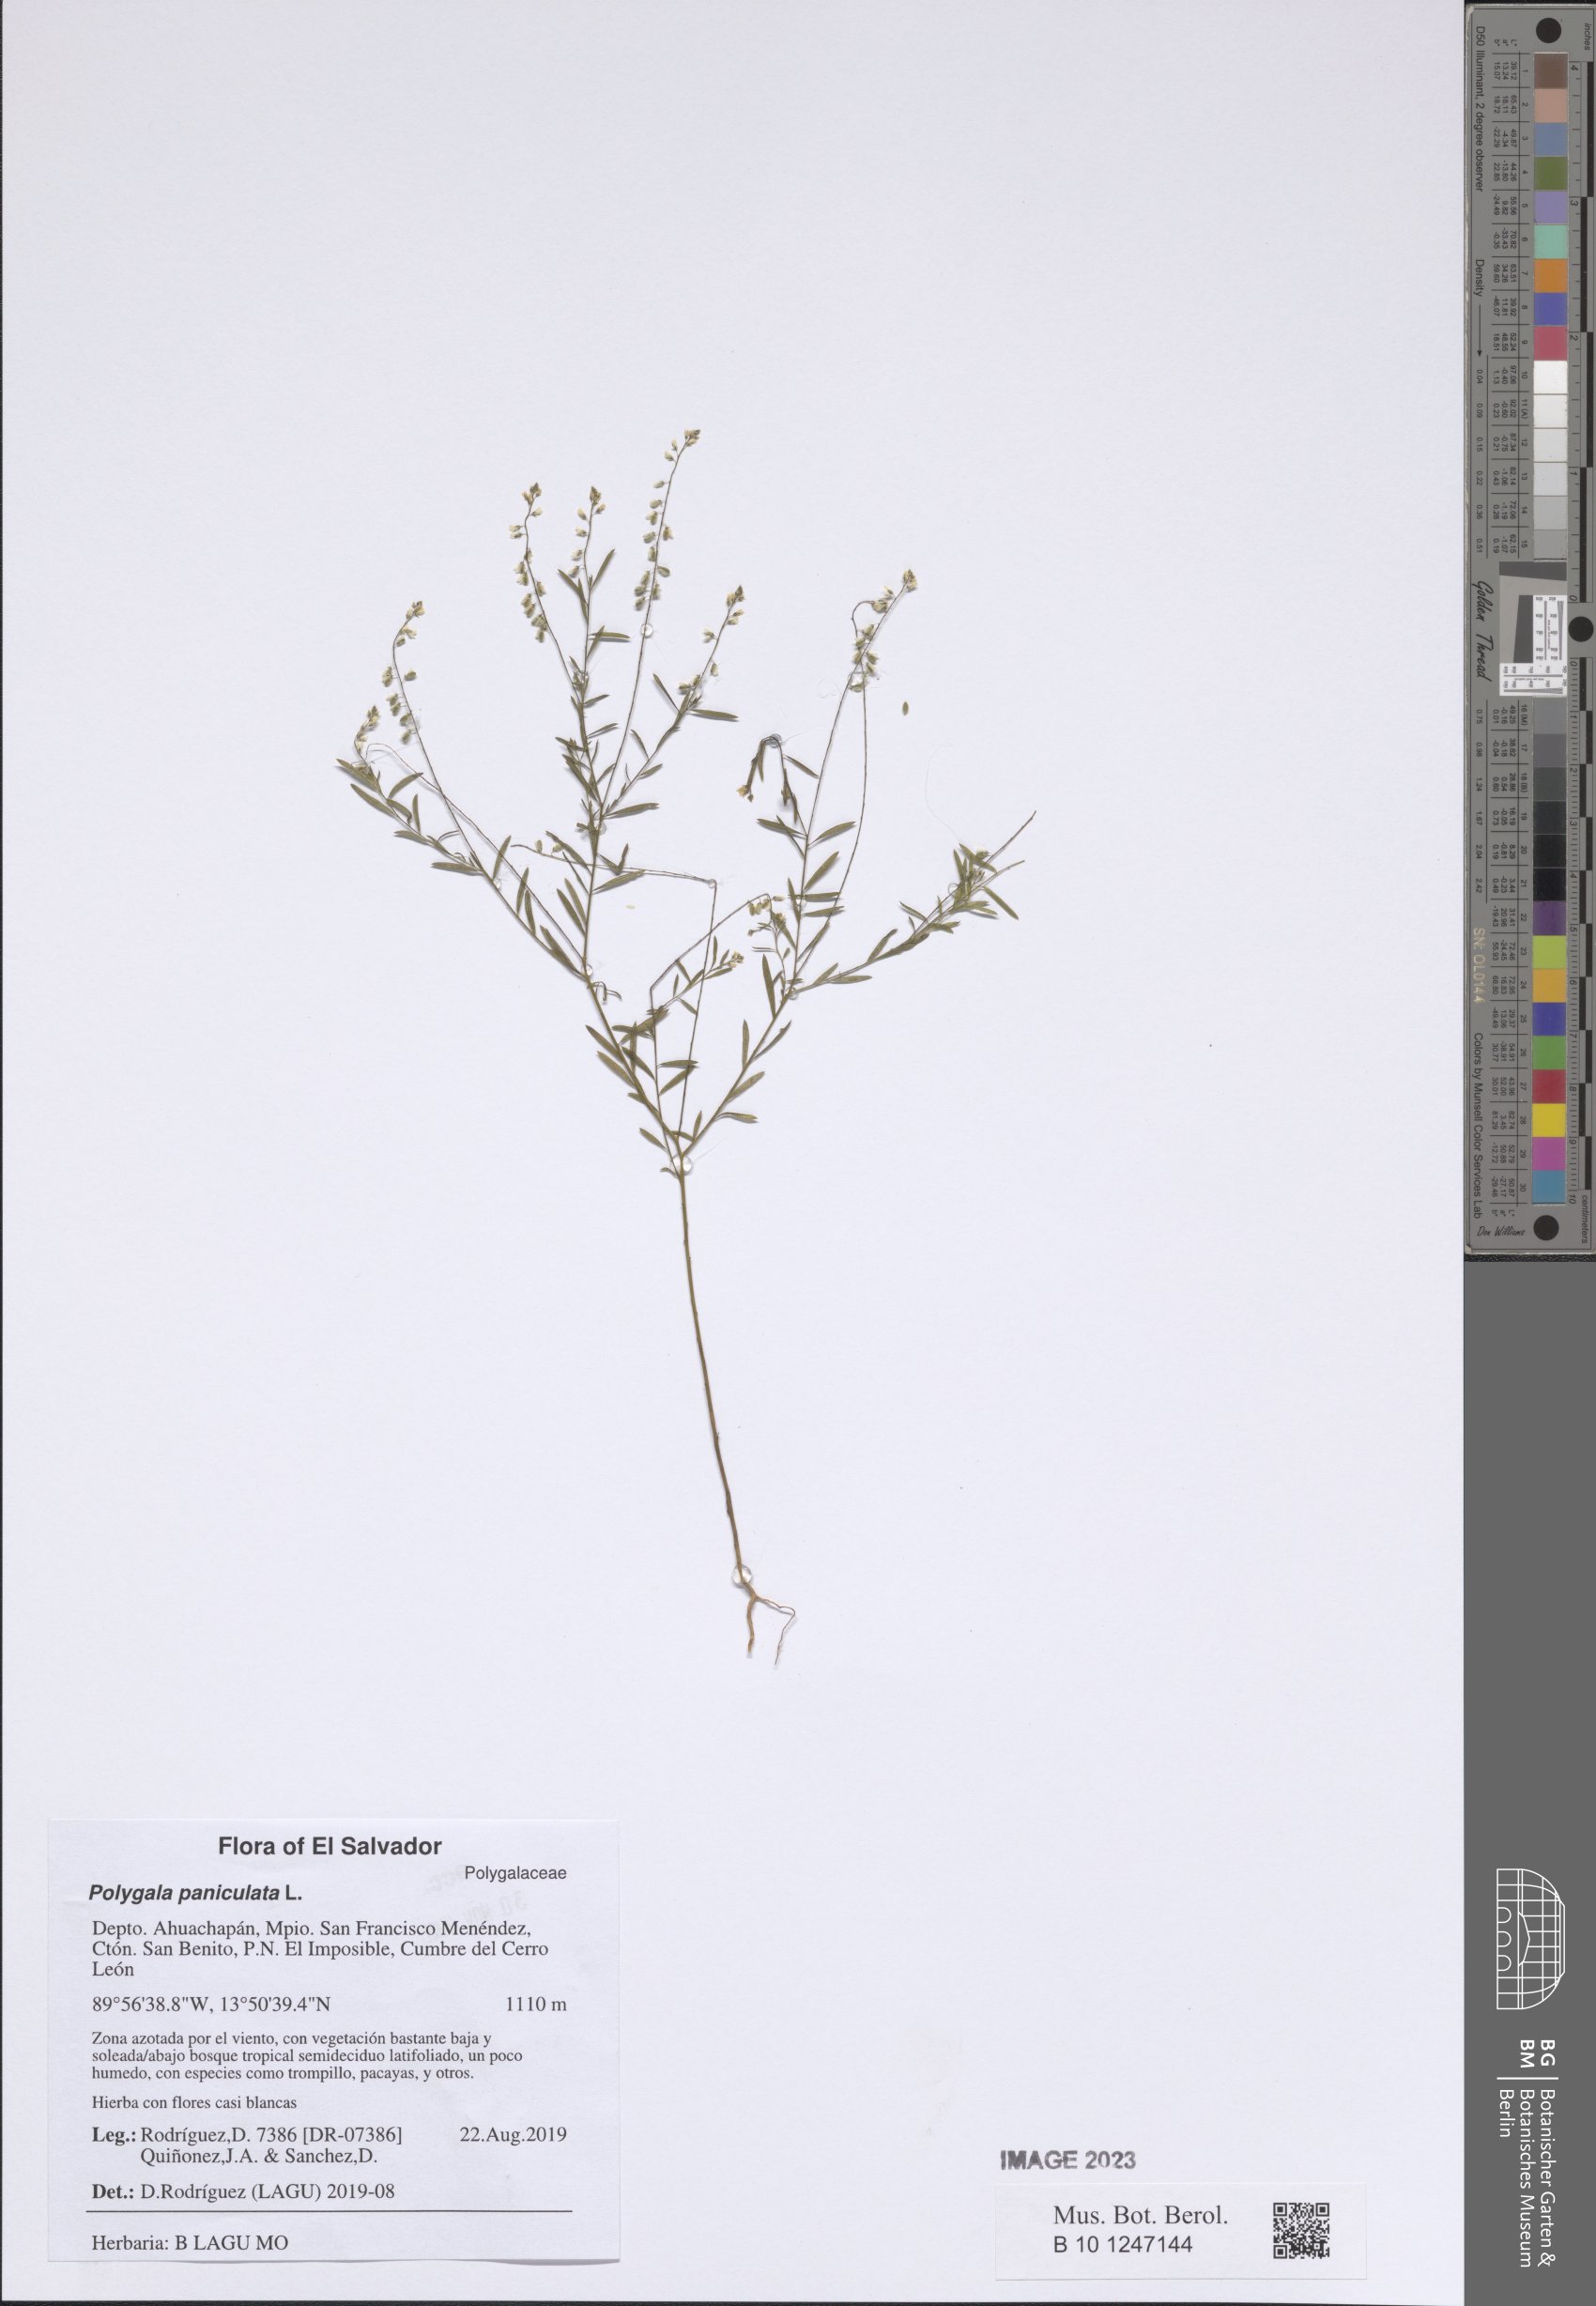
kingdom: Plantae
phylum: Tracheophyta
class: Magnoliopsida
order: Fabales
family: Polygalaceae
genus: Polygala
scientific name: Polygala paniculata
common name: Orosne
